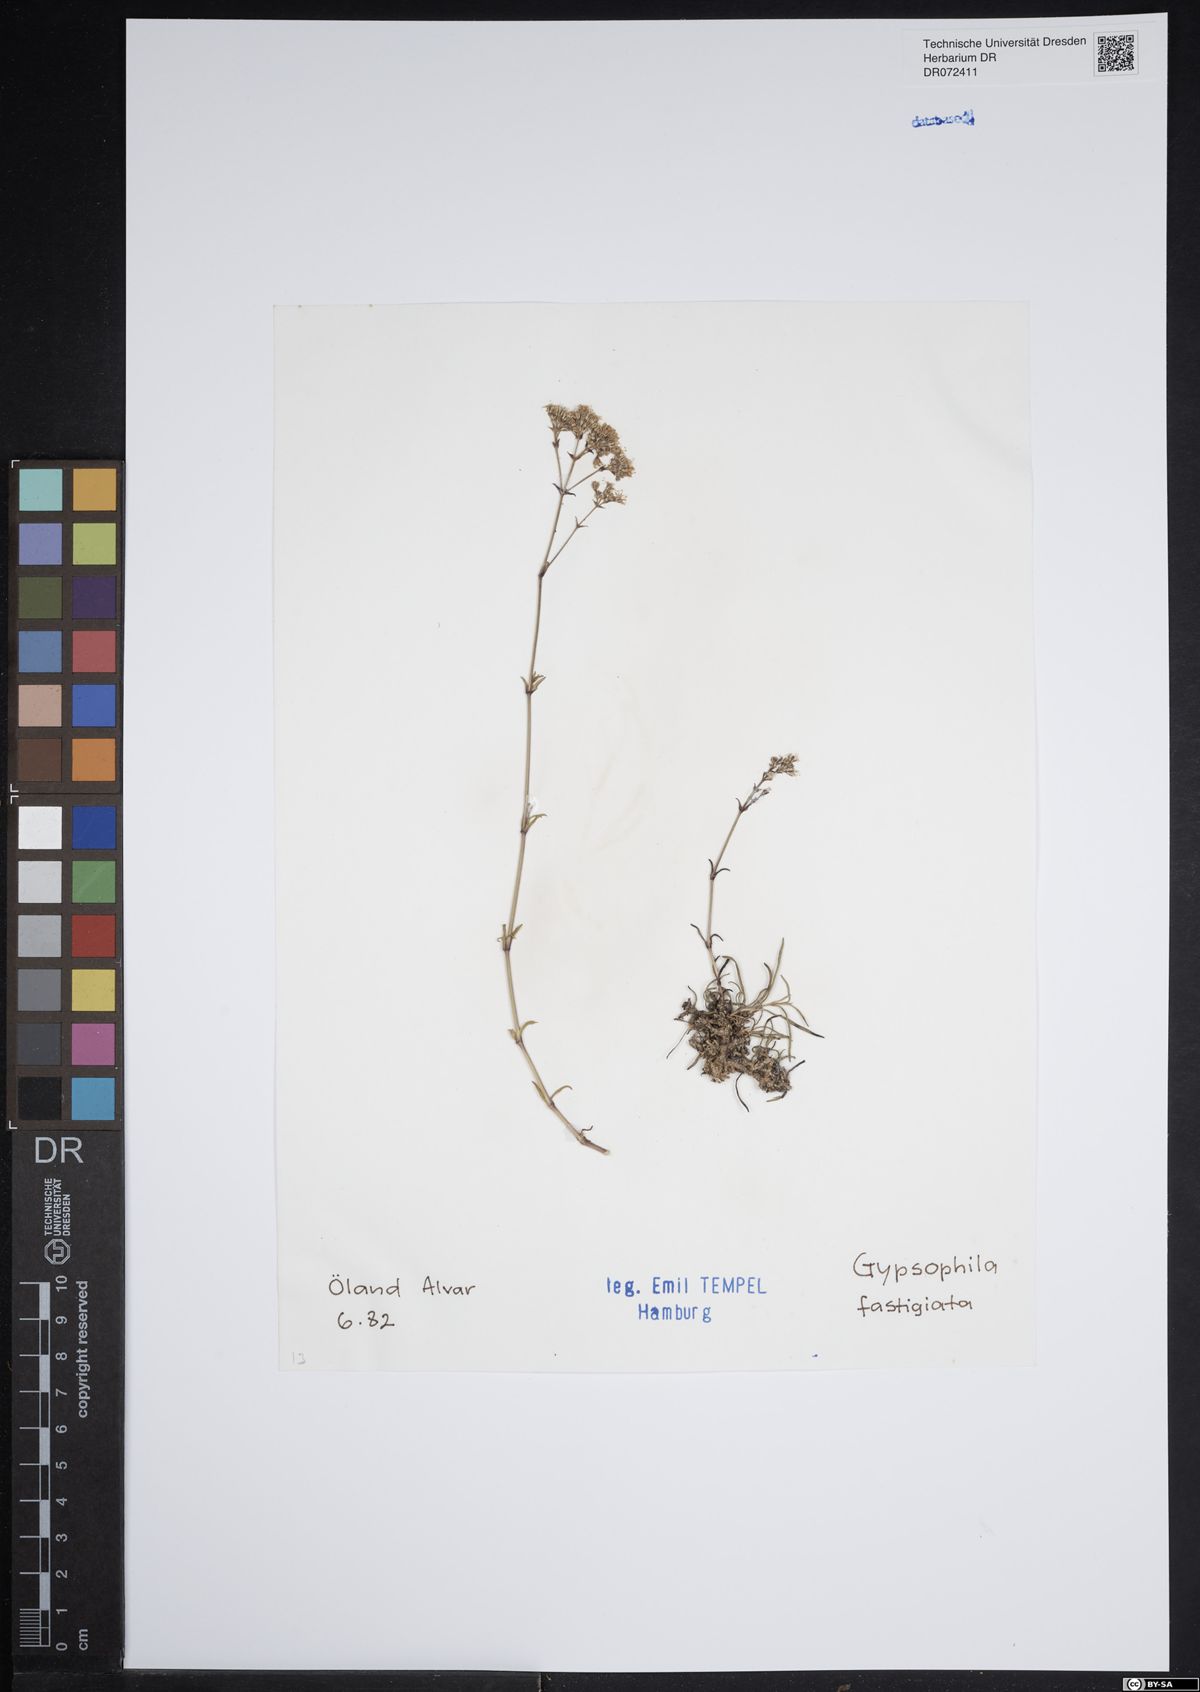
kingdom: Plantae
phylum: Tracheophyta
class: Magnoliopsida
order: Caryophyllales
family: Caryophyllaceae
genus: Gypsophila
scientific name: Gypsophila fastigiata
